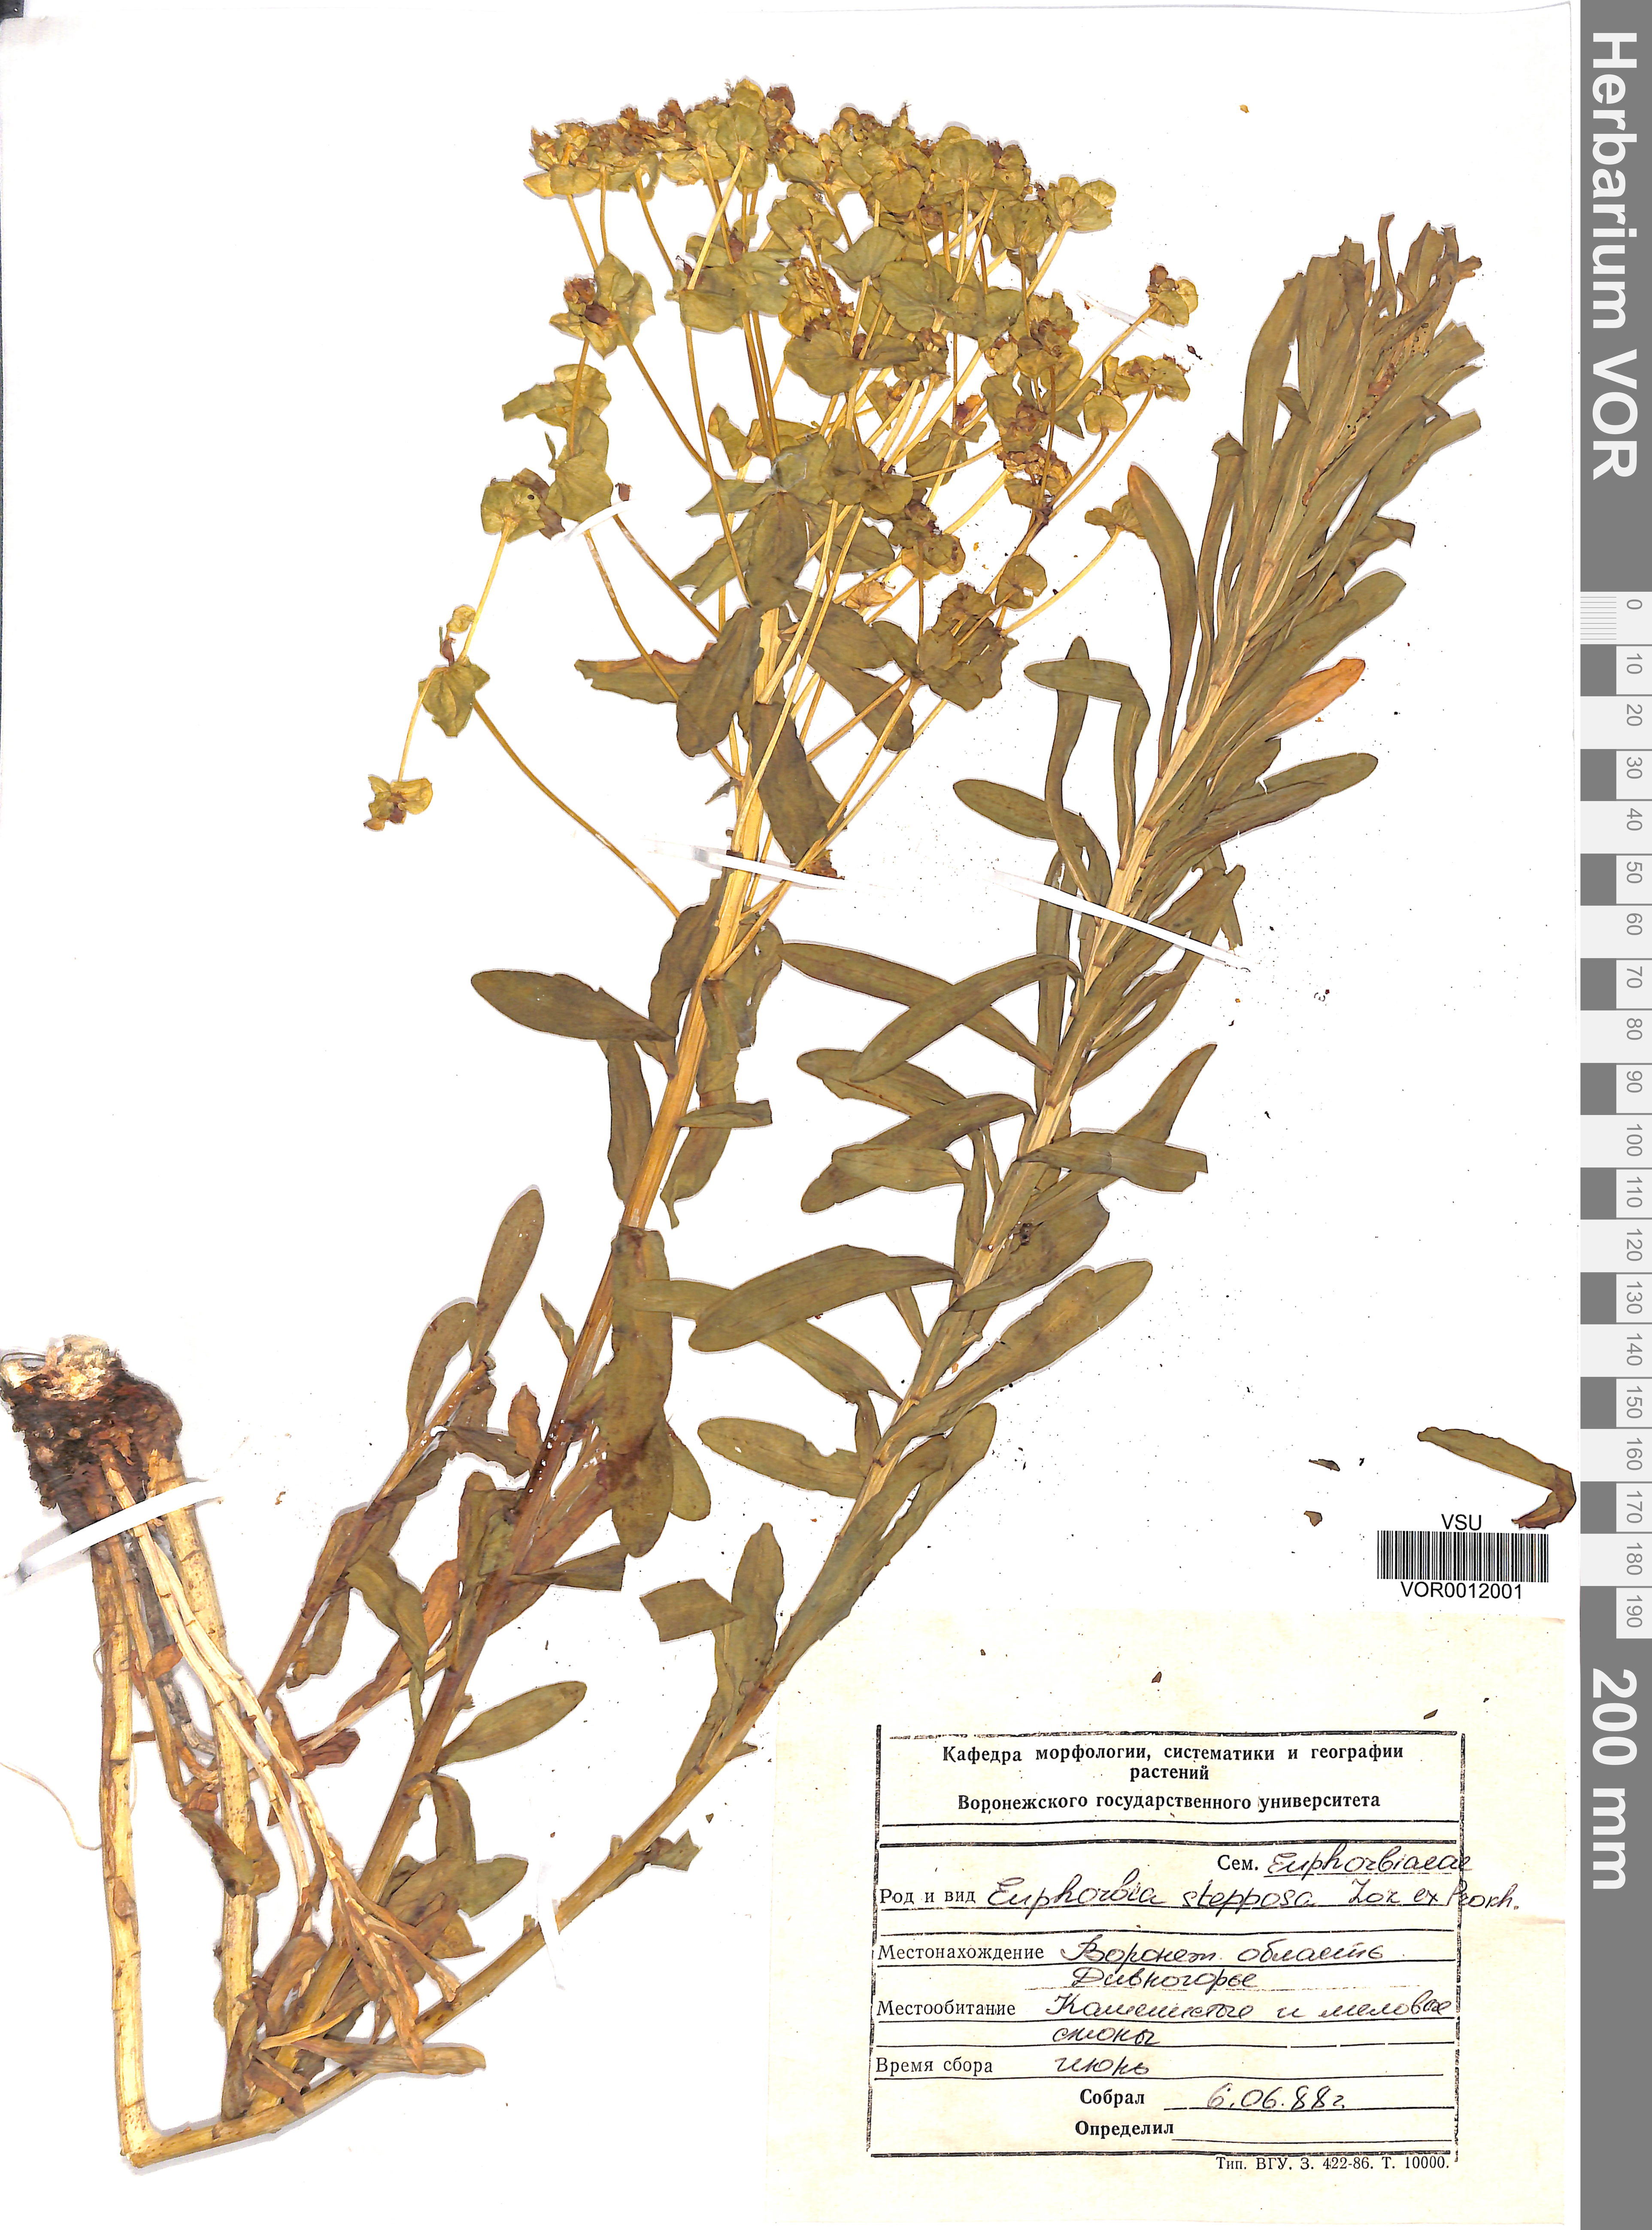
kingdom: Plantae
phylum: Tracheophyta
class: Magnoliopsida
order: Malpighiales
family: Euphorbiaceae
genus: Euphorbia
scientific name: Euphorbia stepposa
